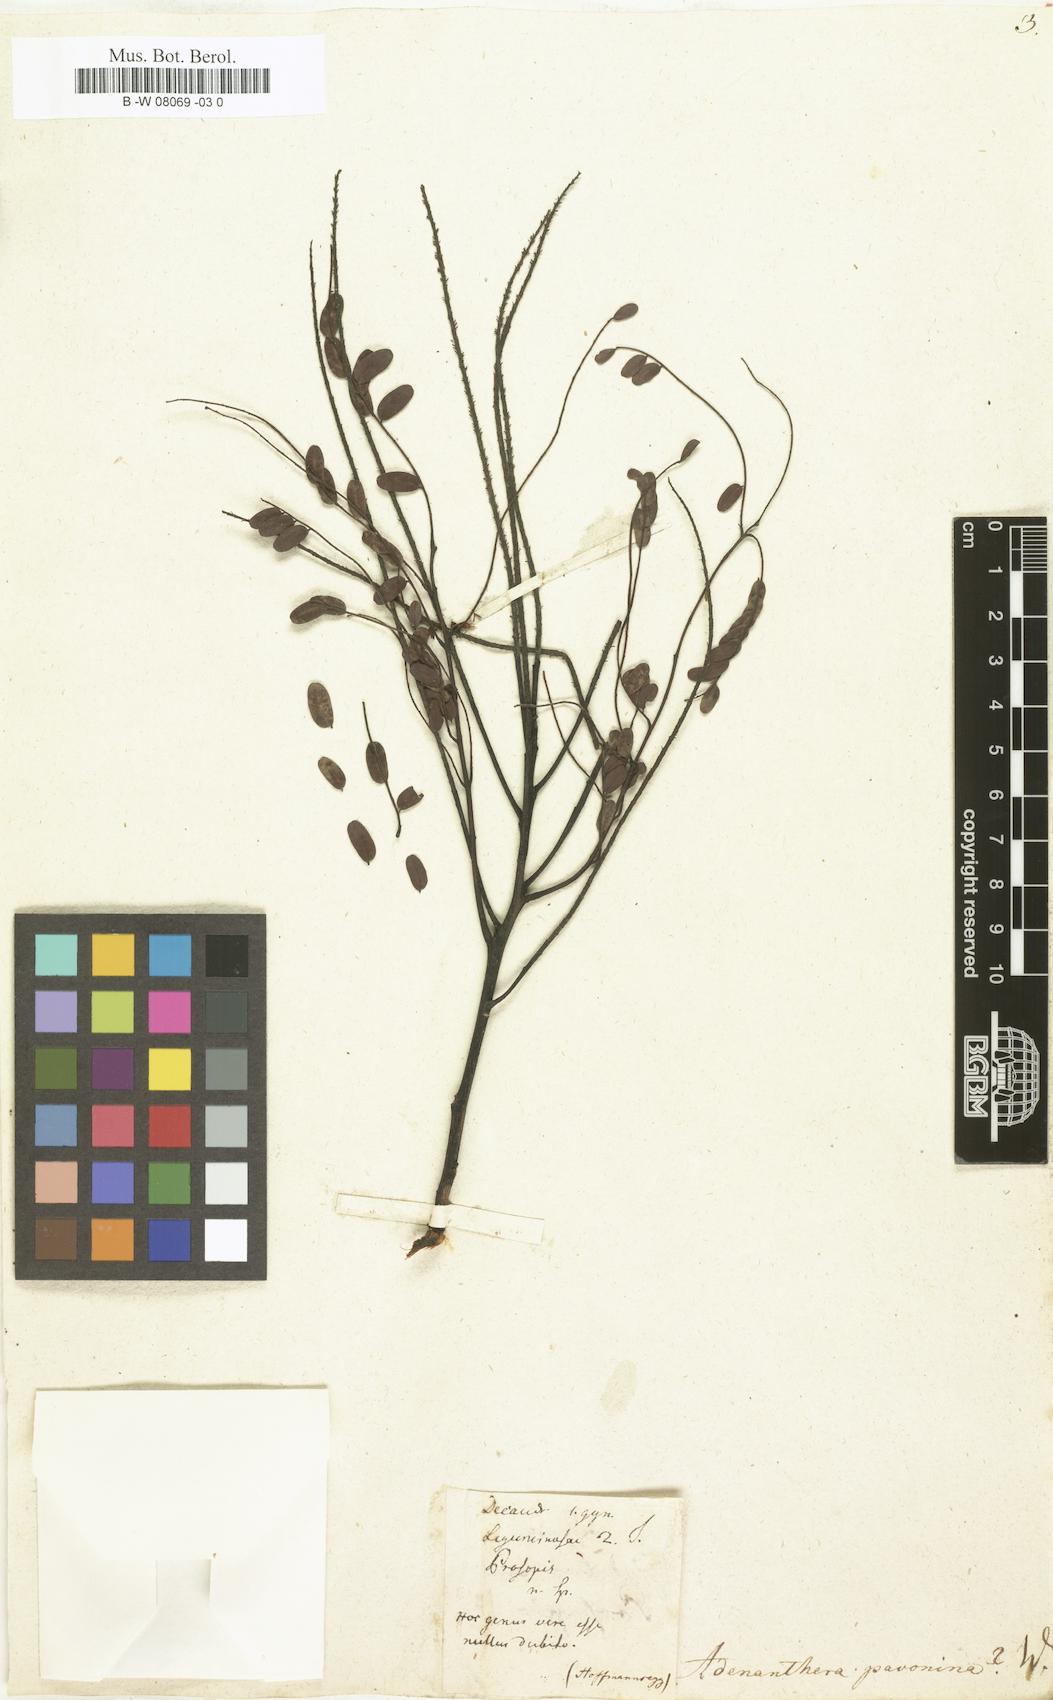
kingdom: Plantae
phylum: Tracheophyta
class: Magnoliopsida
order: Fabales
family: Fabaceae
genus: Adenanthera
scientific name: Adenanthera pavonina
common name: Red beadtree
